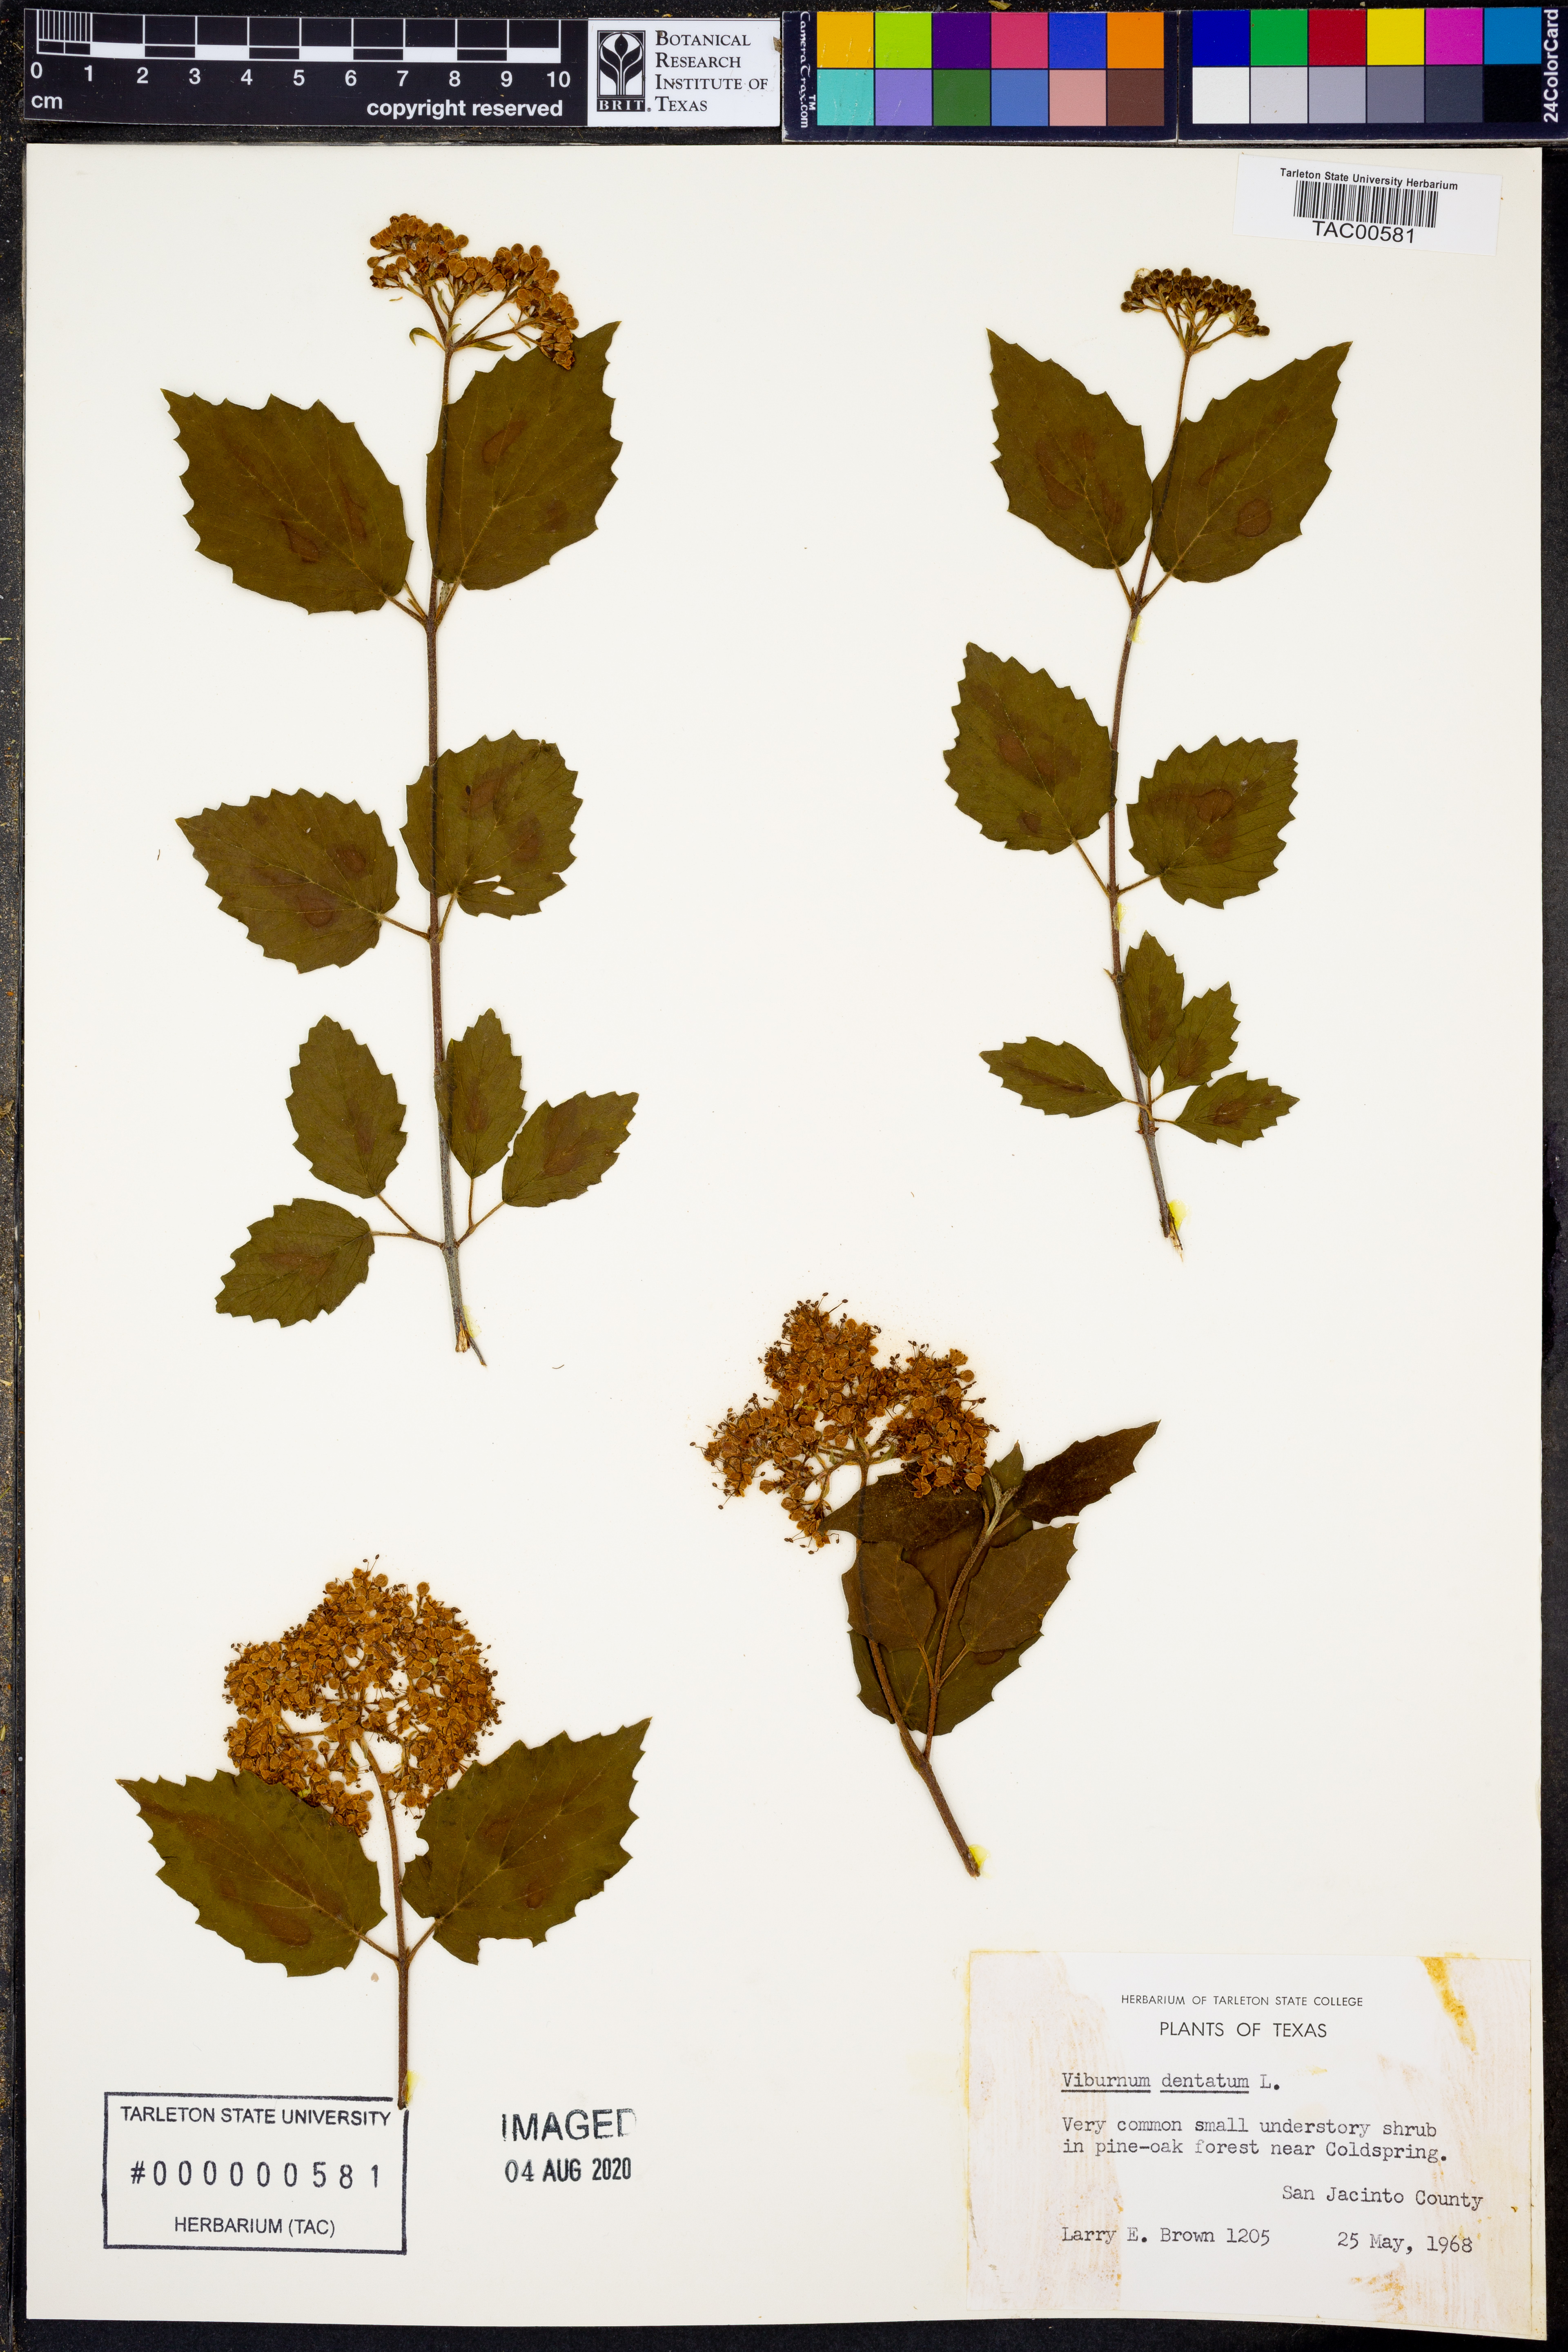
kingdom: Plantae
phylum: Tracheophyta
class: Magnoliopsida
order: Dipsacales
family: Viburnaceae
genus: Viburnum
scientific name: Viburnum dentatum
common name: Arrow-wood
